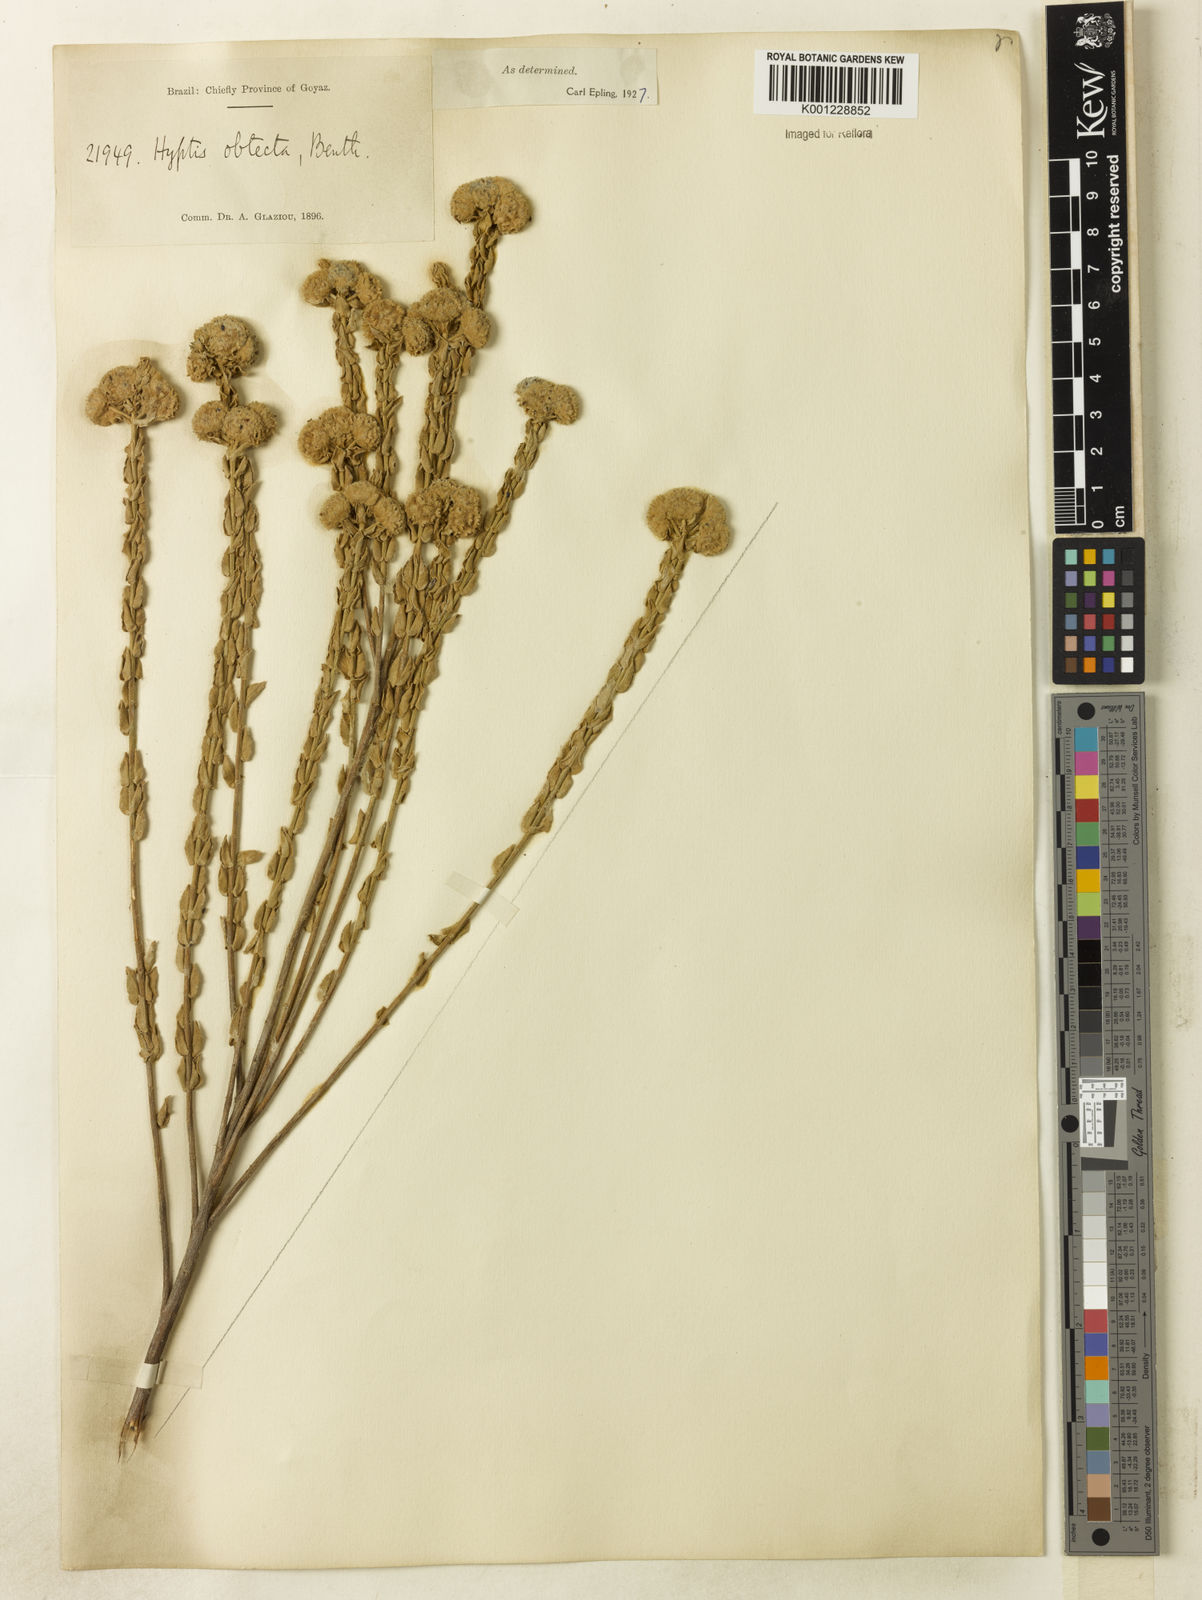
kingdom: Plantae
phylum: Tracheophyta
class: Magnoliopsida
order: Lamiales
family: Lamiaceae
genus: Hyptis
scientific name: Hyptis obtecta
